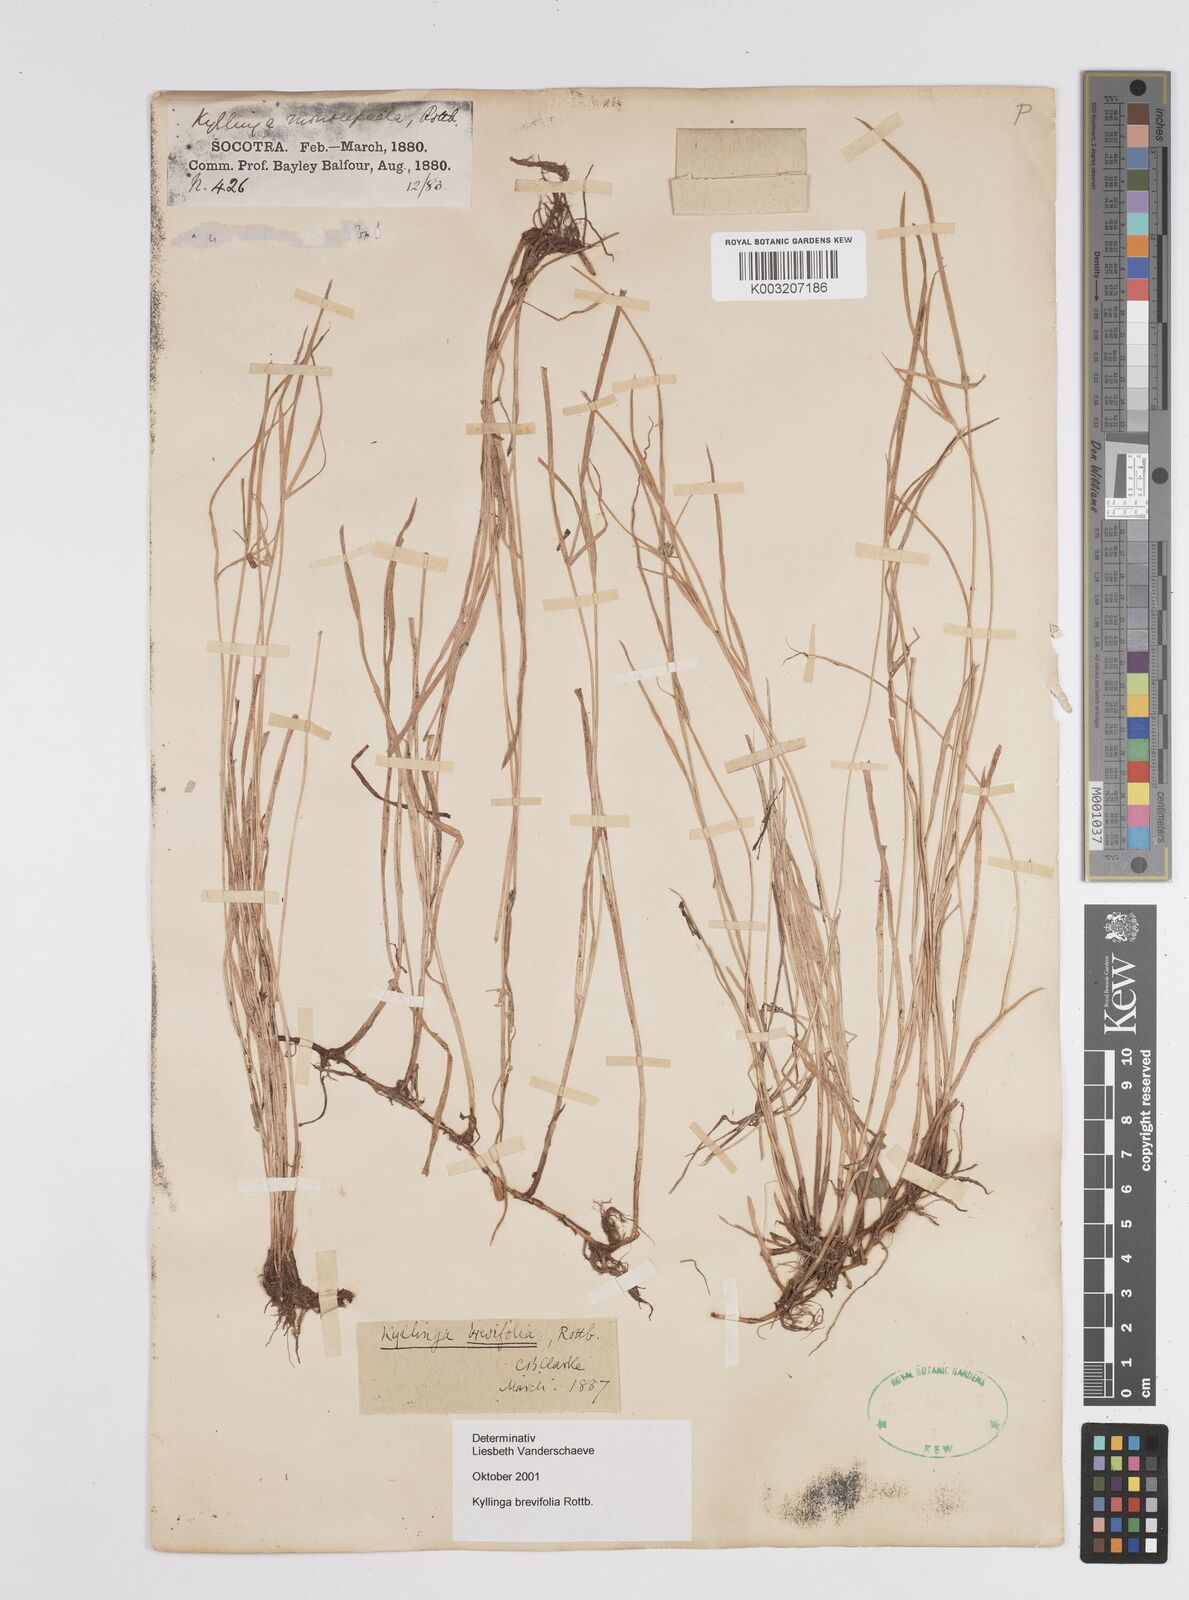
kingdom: Plantae
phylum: Tracheophyta
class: Liliopsida
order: Poales
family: Cyperaceae
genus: Cyperus
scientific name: Cyperus
